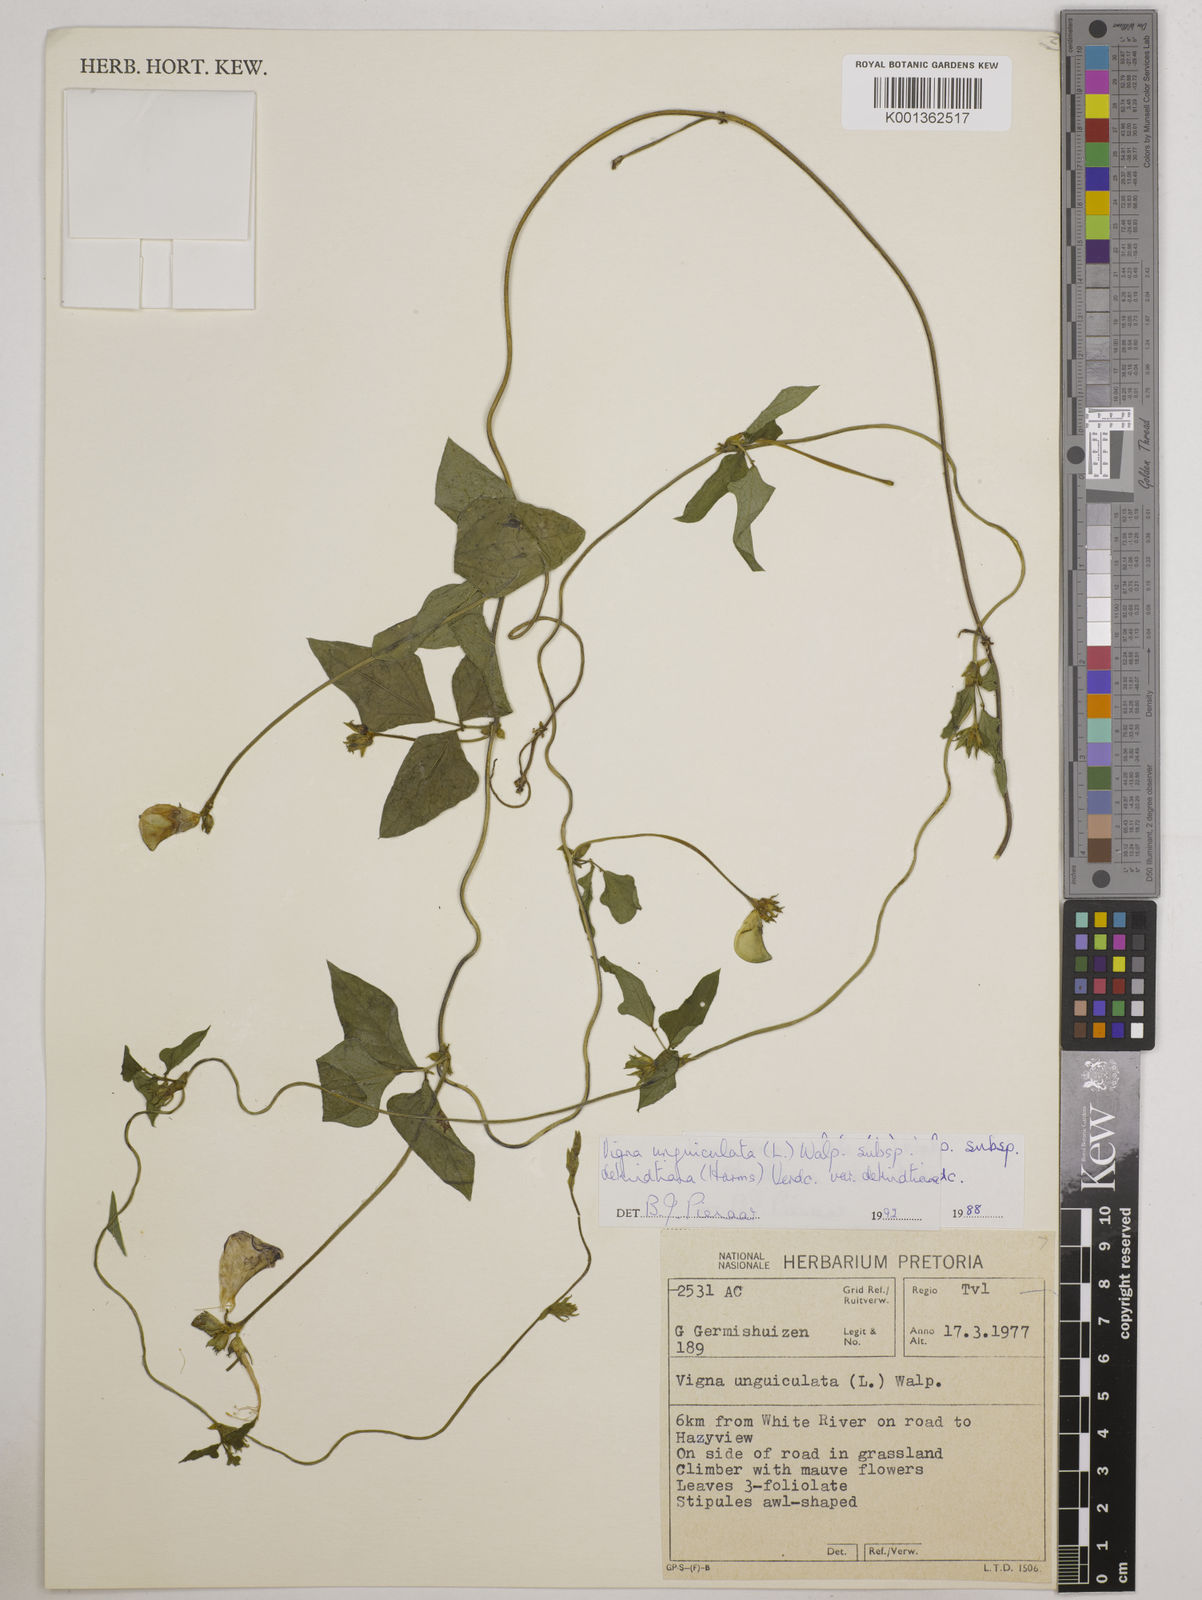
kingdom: Plantae
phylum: Tracheophyta
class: Magnoliopsida
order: Fabales
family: Fabaceae
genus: Vigna
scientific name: Vigna unguiculata
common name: Cowpea
